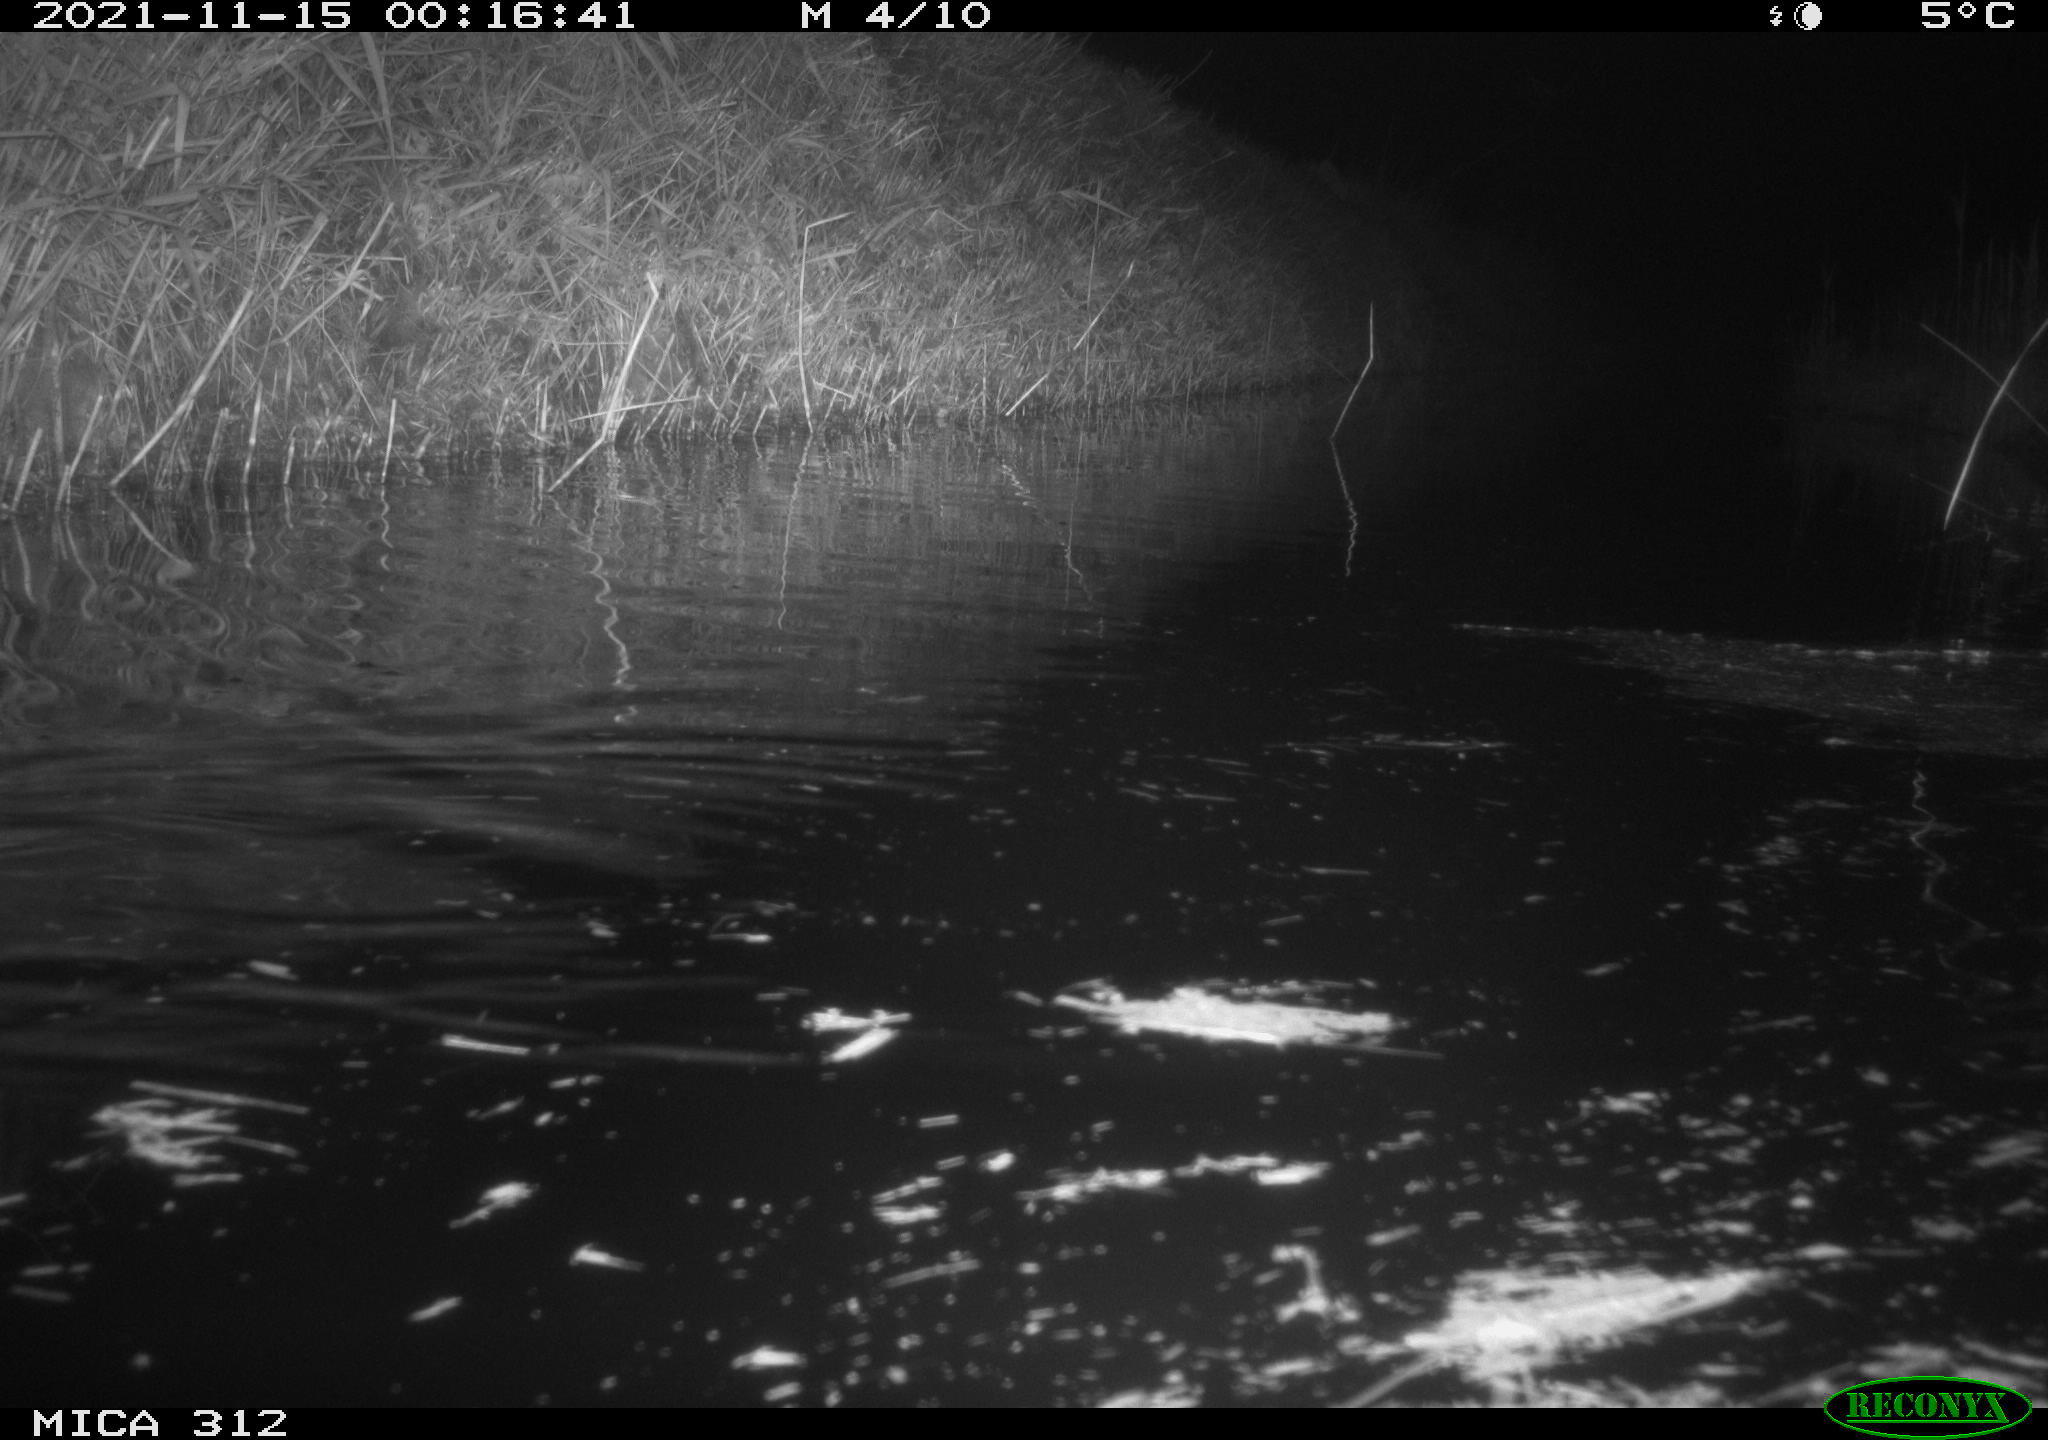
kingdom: Animalia
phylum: Chordata
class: Mammalia
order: Rodentia
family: Muridae
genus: Rattus
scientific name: Rattus norvegicus
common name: Brown rat
